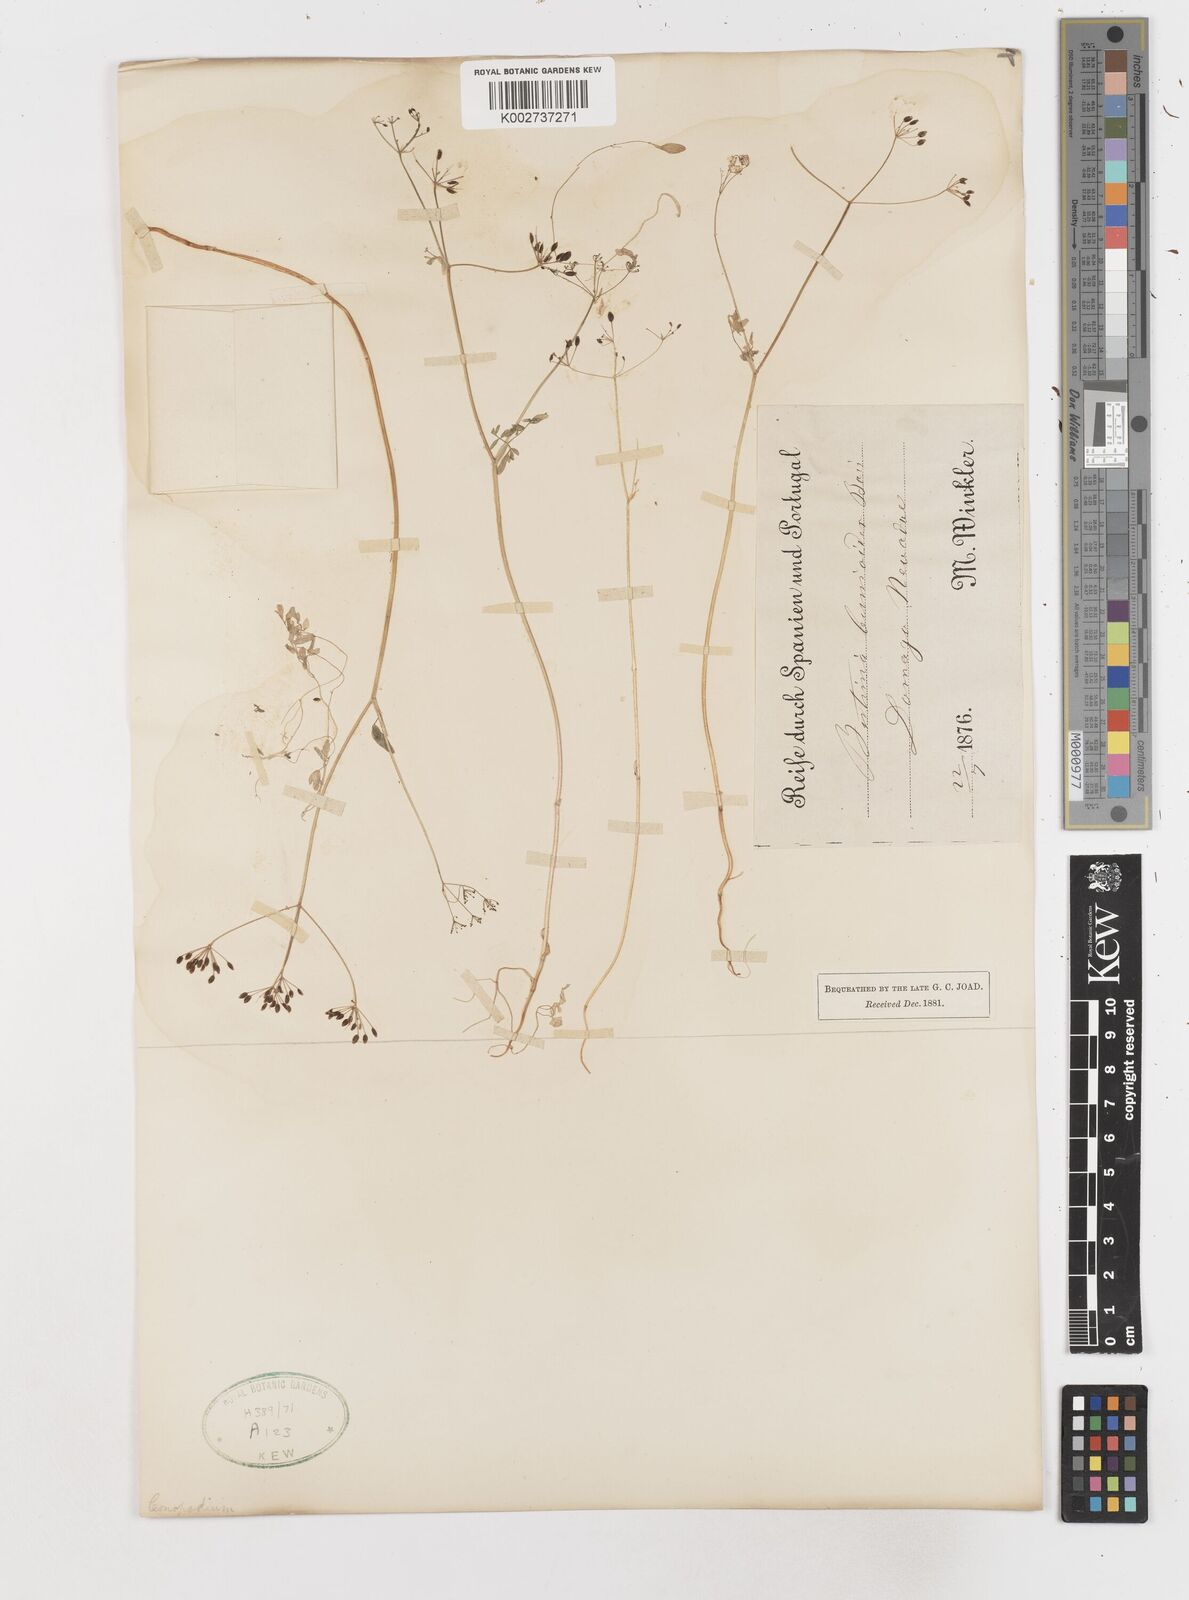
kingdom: Plantae
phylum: Tracheophyta
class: Magnoliopsida
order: Apiales
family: Apiaceae
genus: Conopodium
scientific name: Conopodium bunioides
